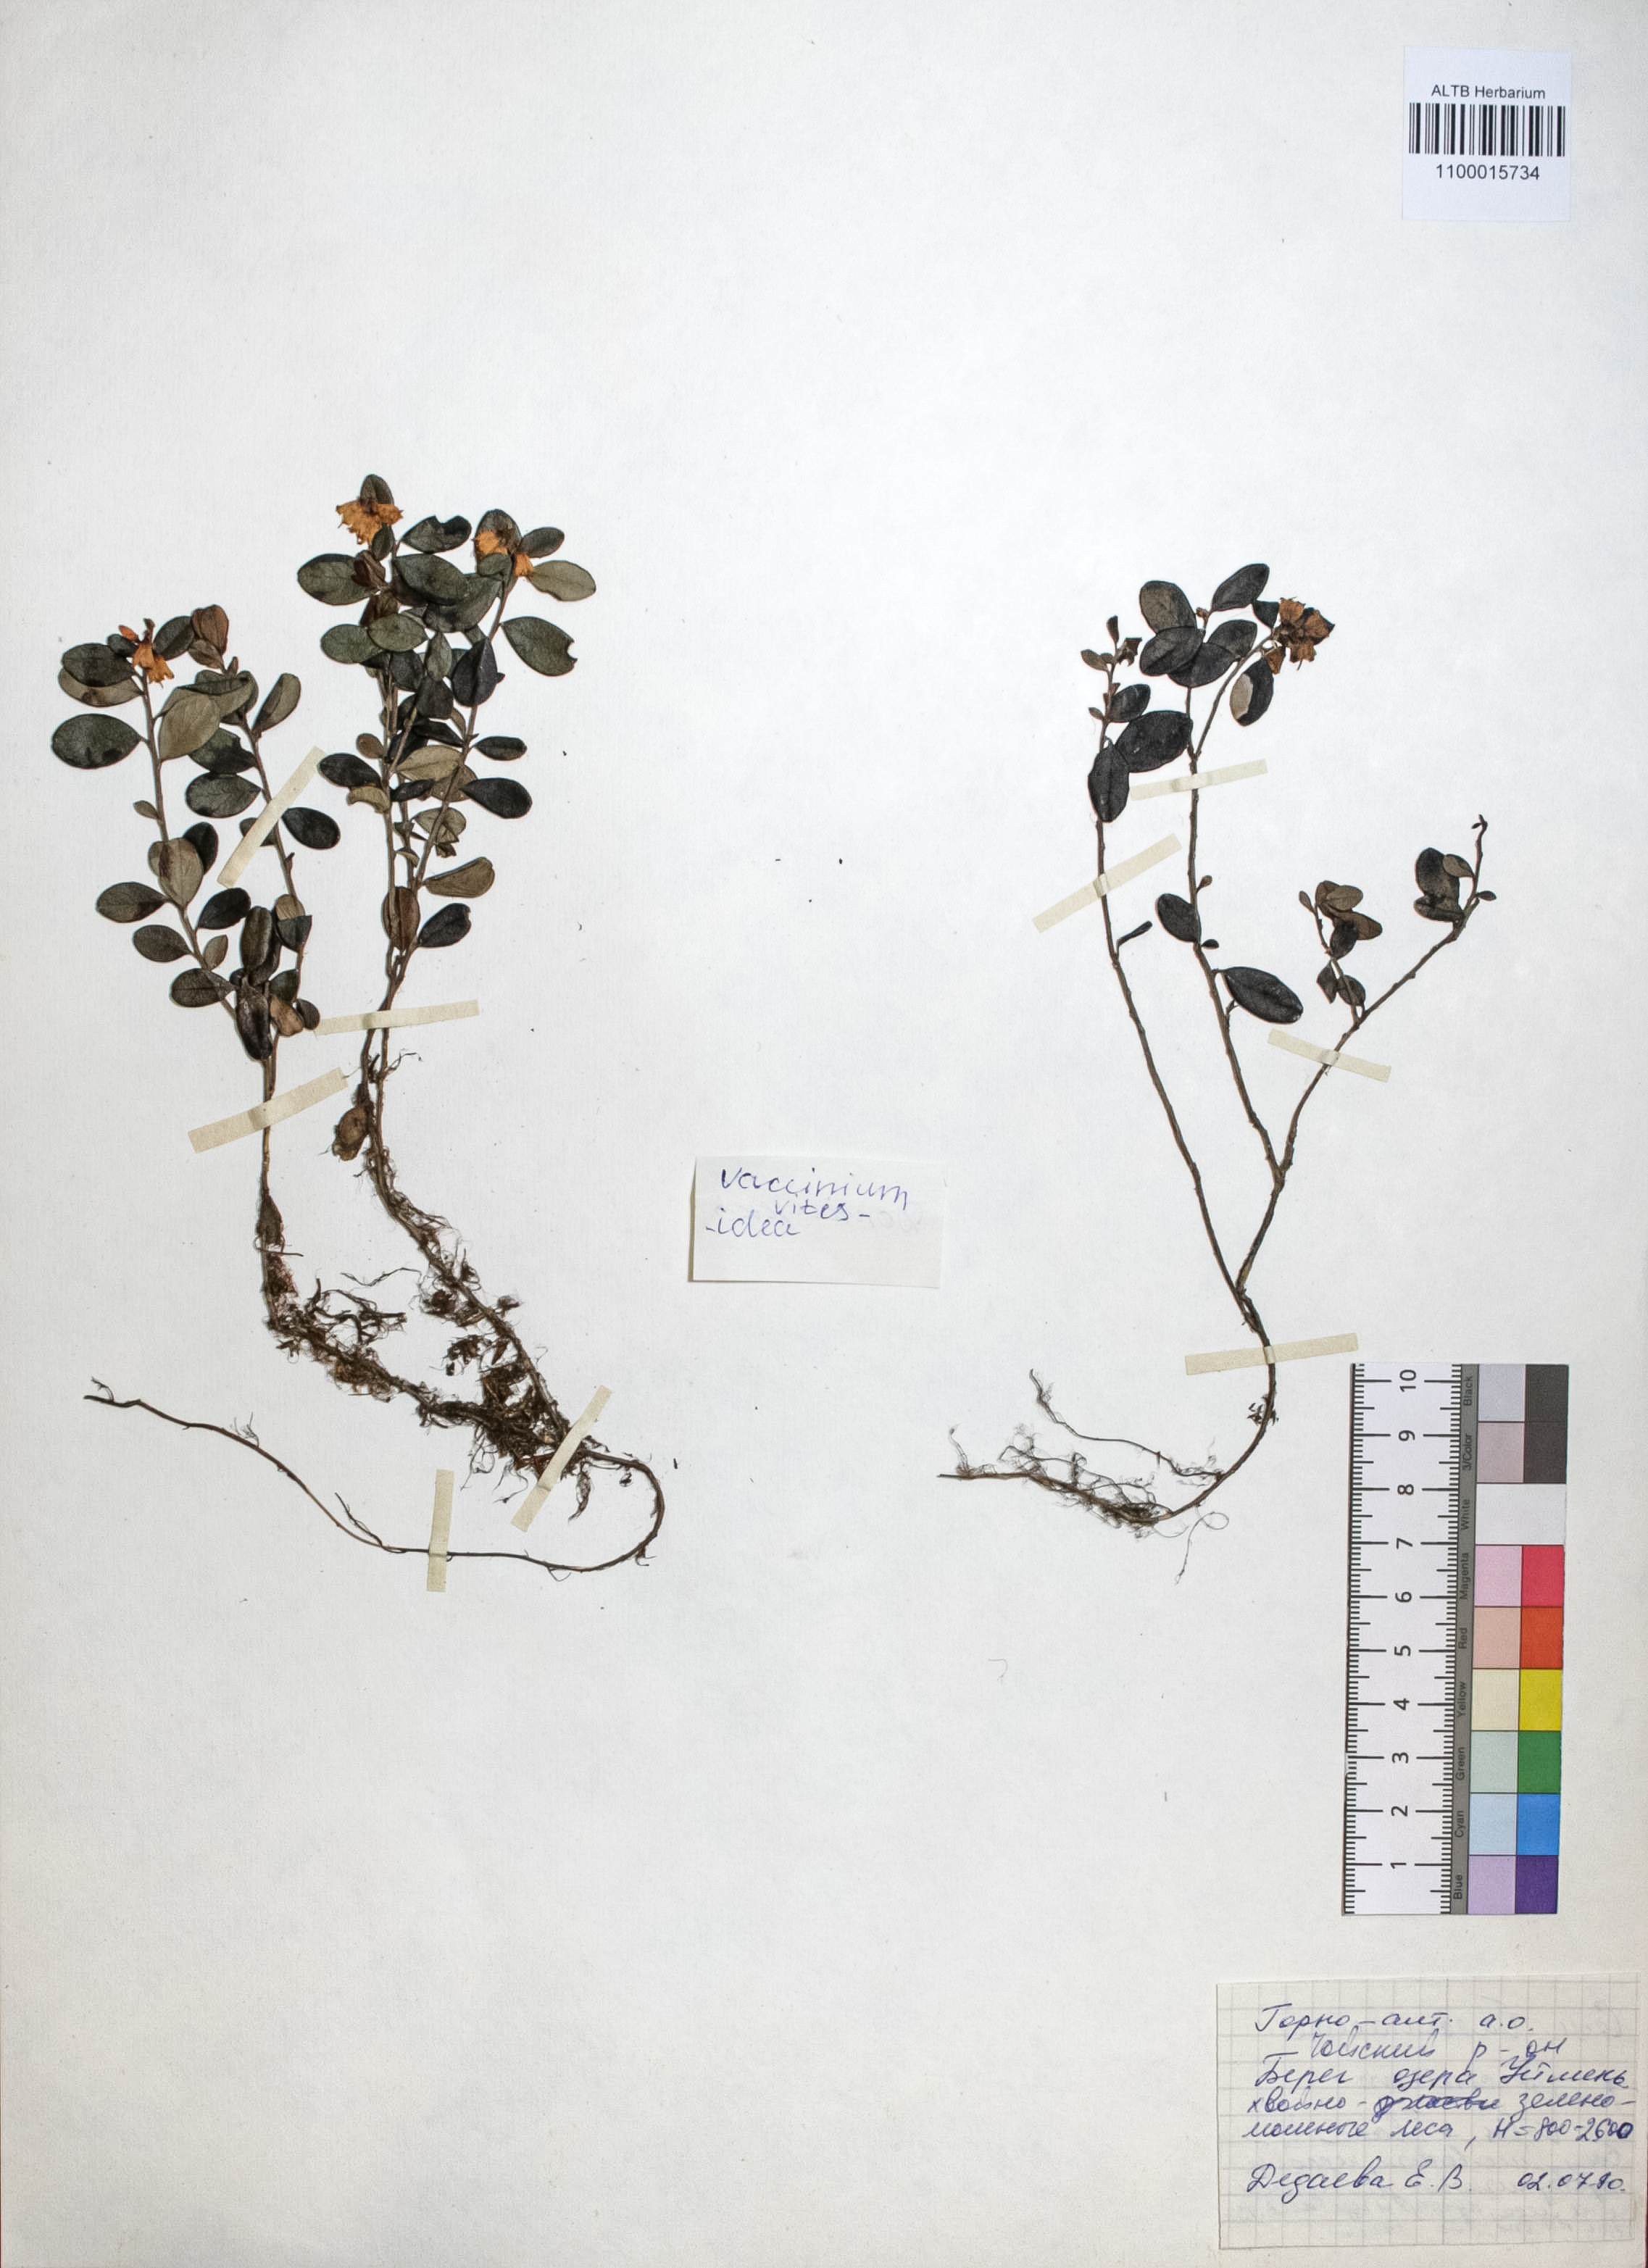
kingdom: Plantae
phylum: Tracheophyta
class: Magnoliopsida
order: Ericales
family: Ericaceae
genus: Vaccinium
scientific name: Vaccinium vitis-idaea
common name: Cowberry
